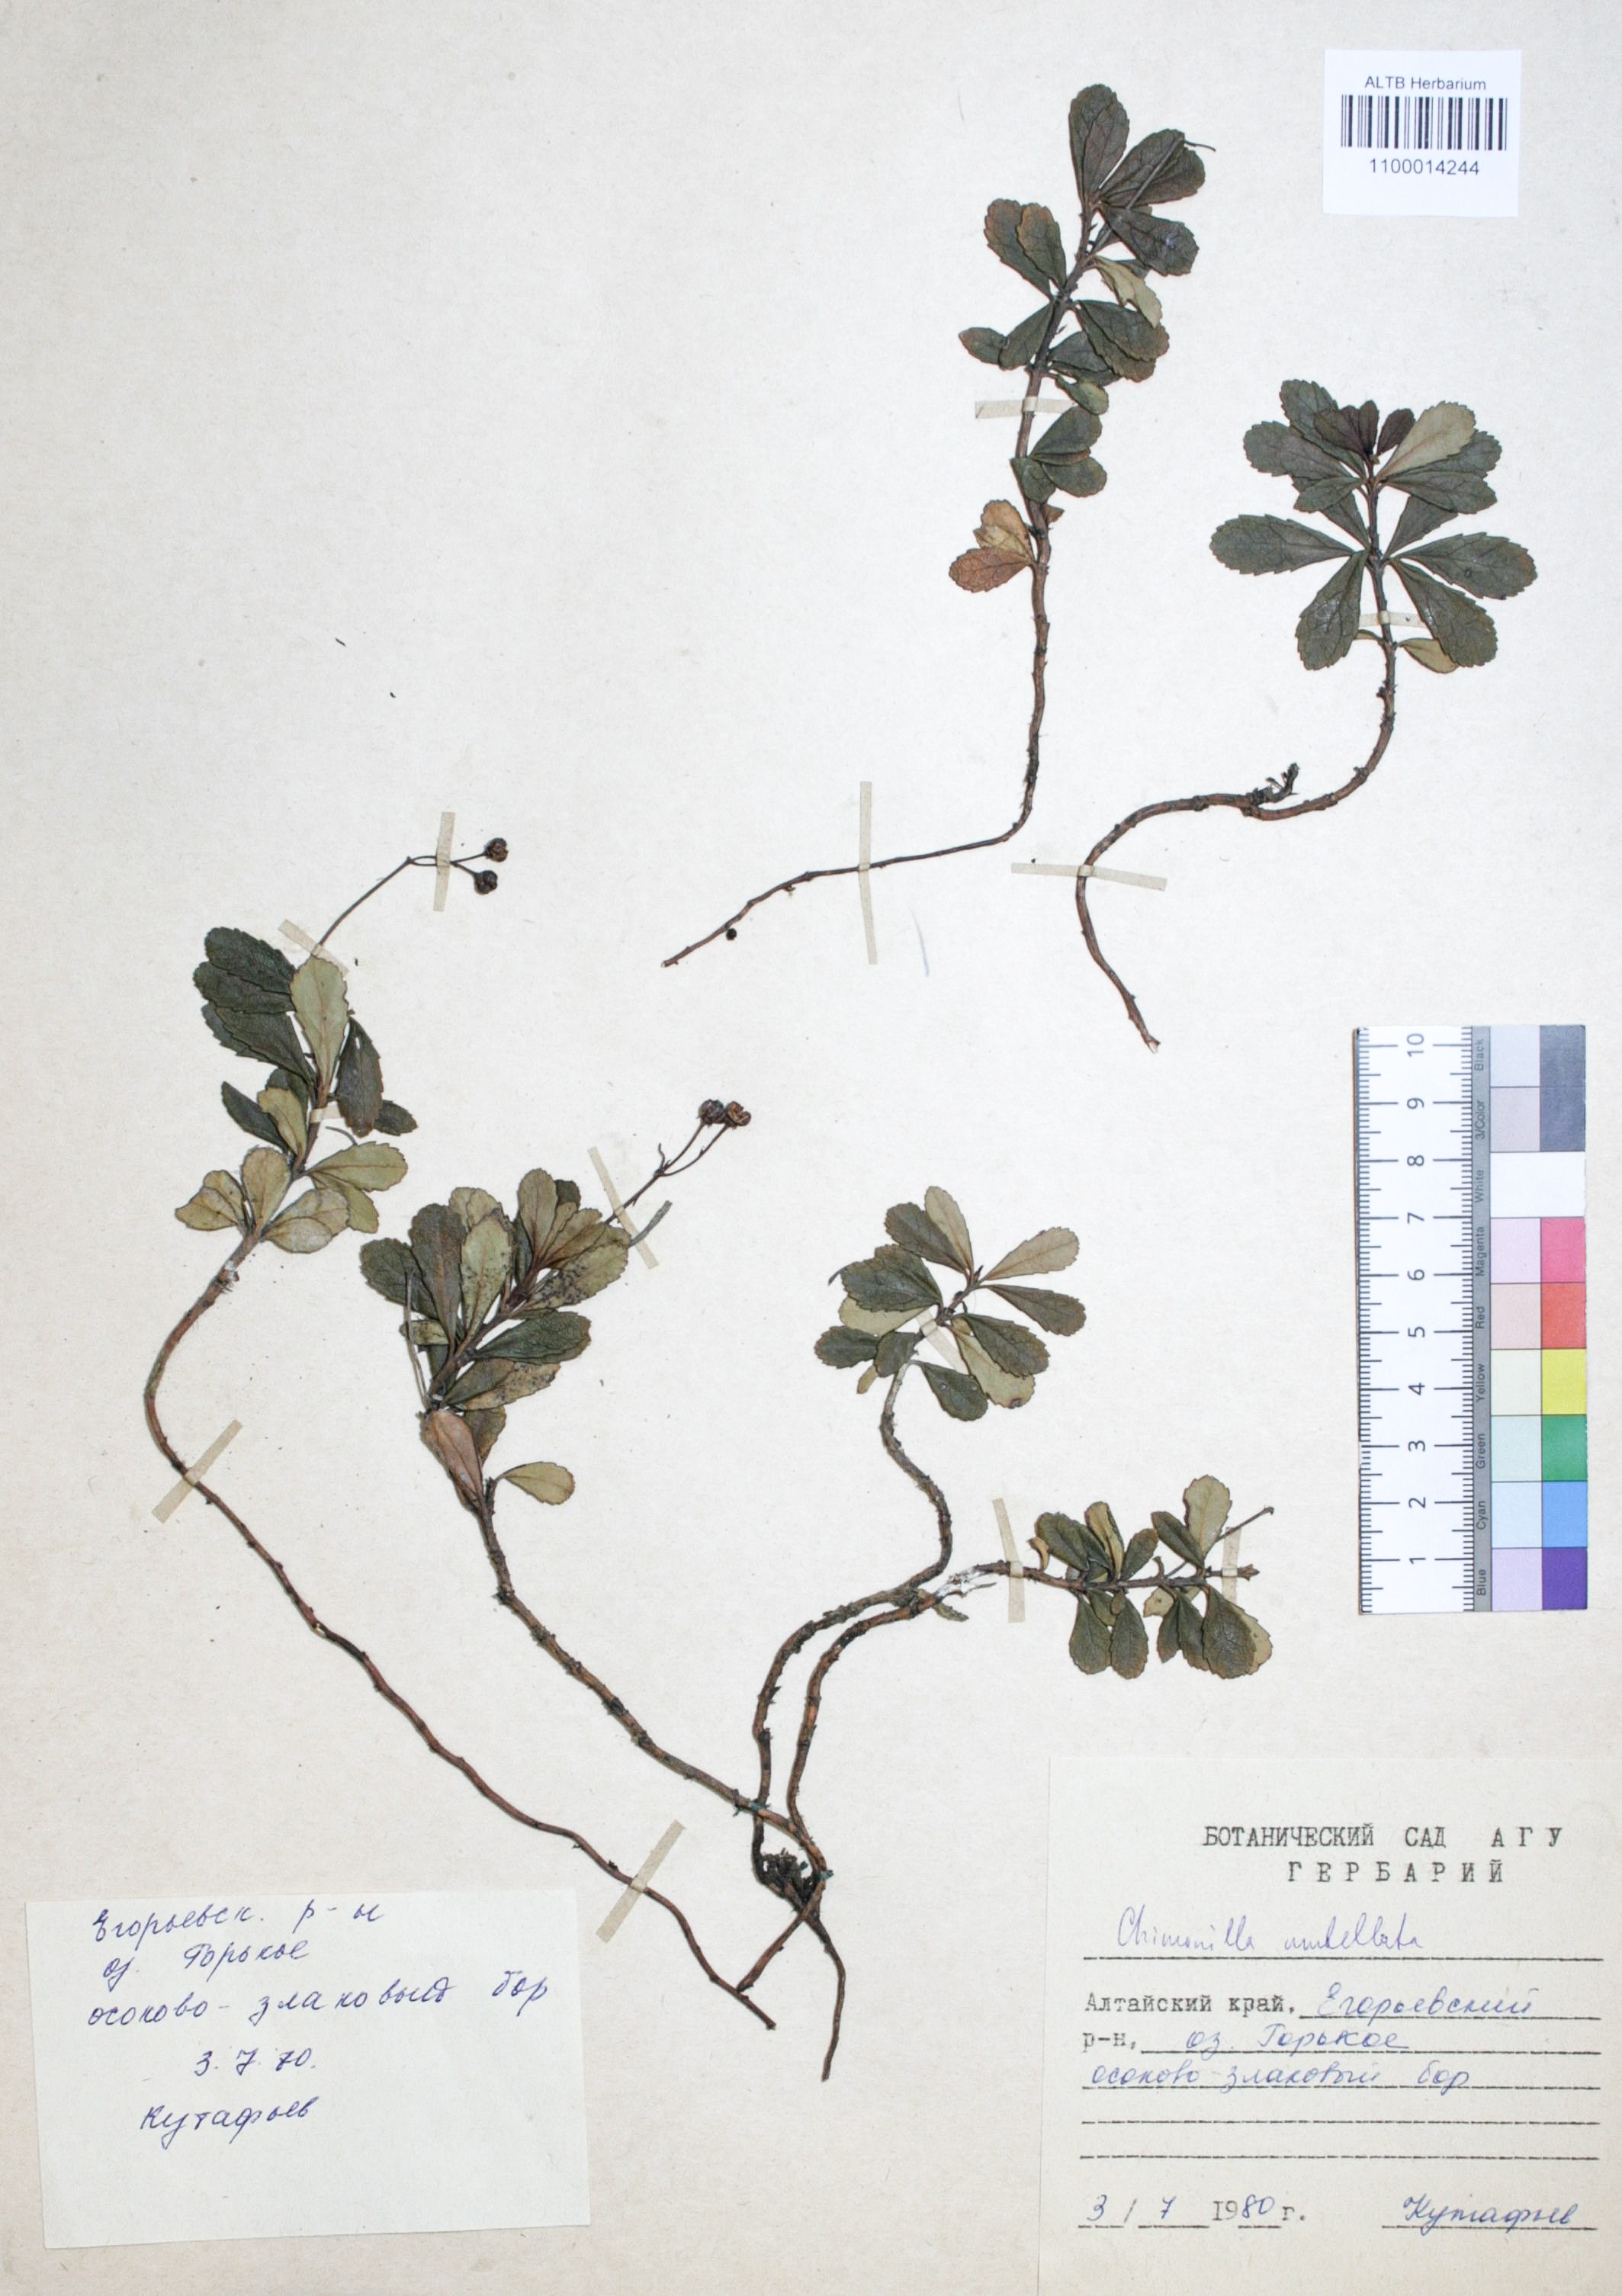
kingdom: Plantae
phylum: Tracheophyta
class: Magnoliopsida
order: Ericales
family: Ericaceae
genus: Chimaphila
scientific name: Chimaphila umbellata
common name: Pipsissewa
